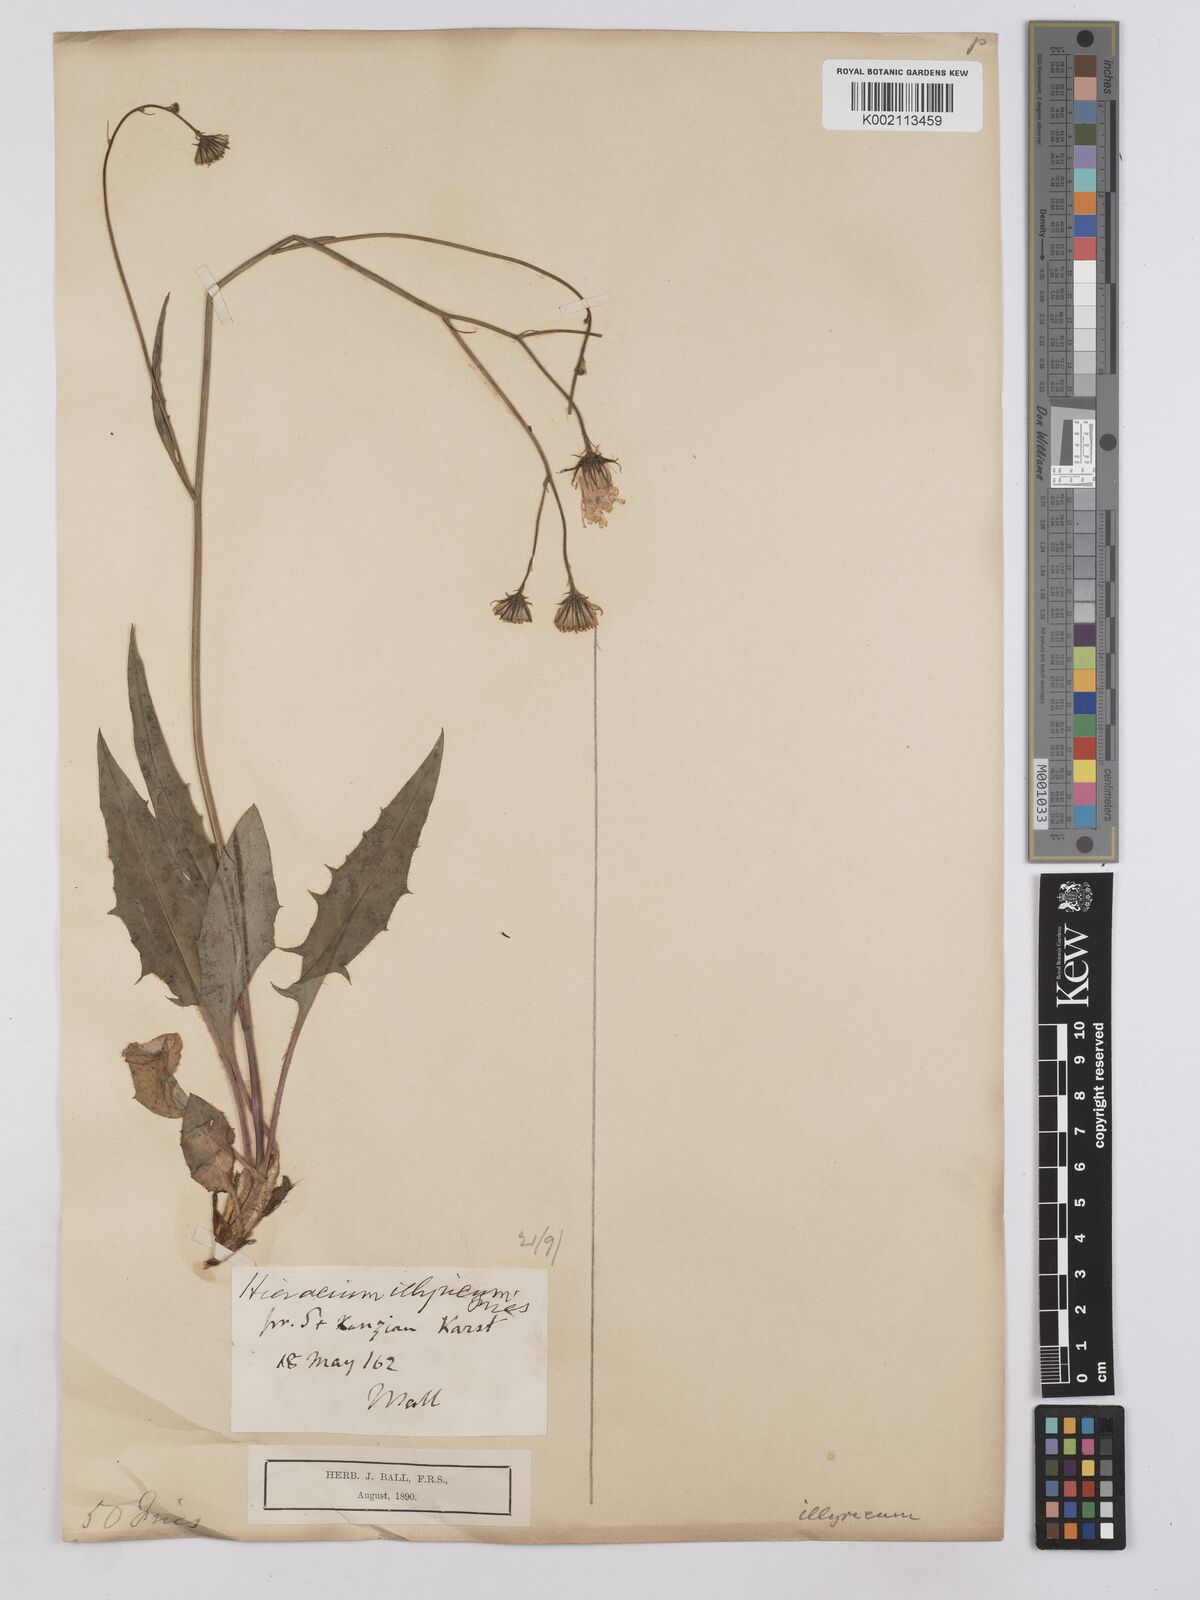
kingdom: Plantae
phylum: Tracheophyta
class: Magnoliopsida
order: Asterales
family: Asteraceae
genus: Hieracium
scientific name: Hieracium calcareum
